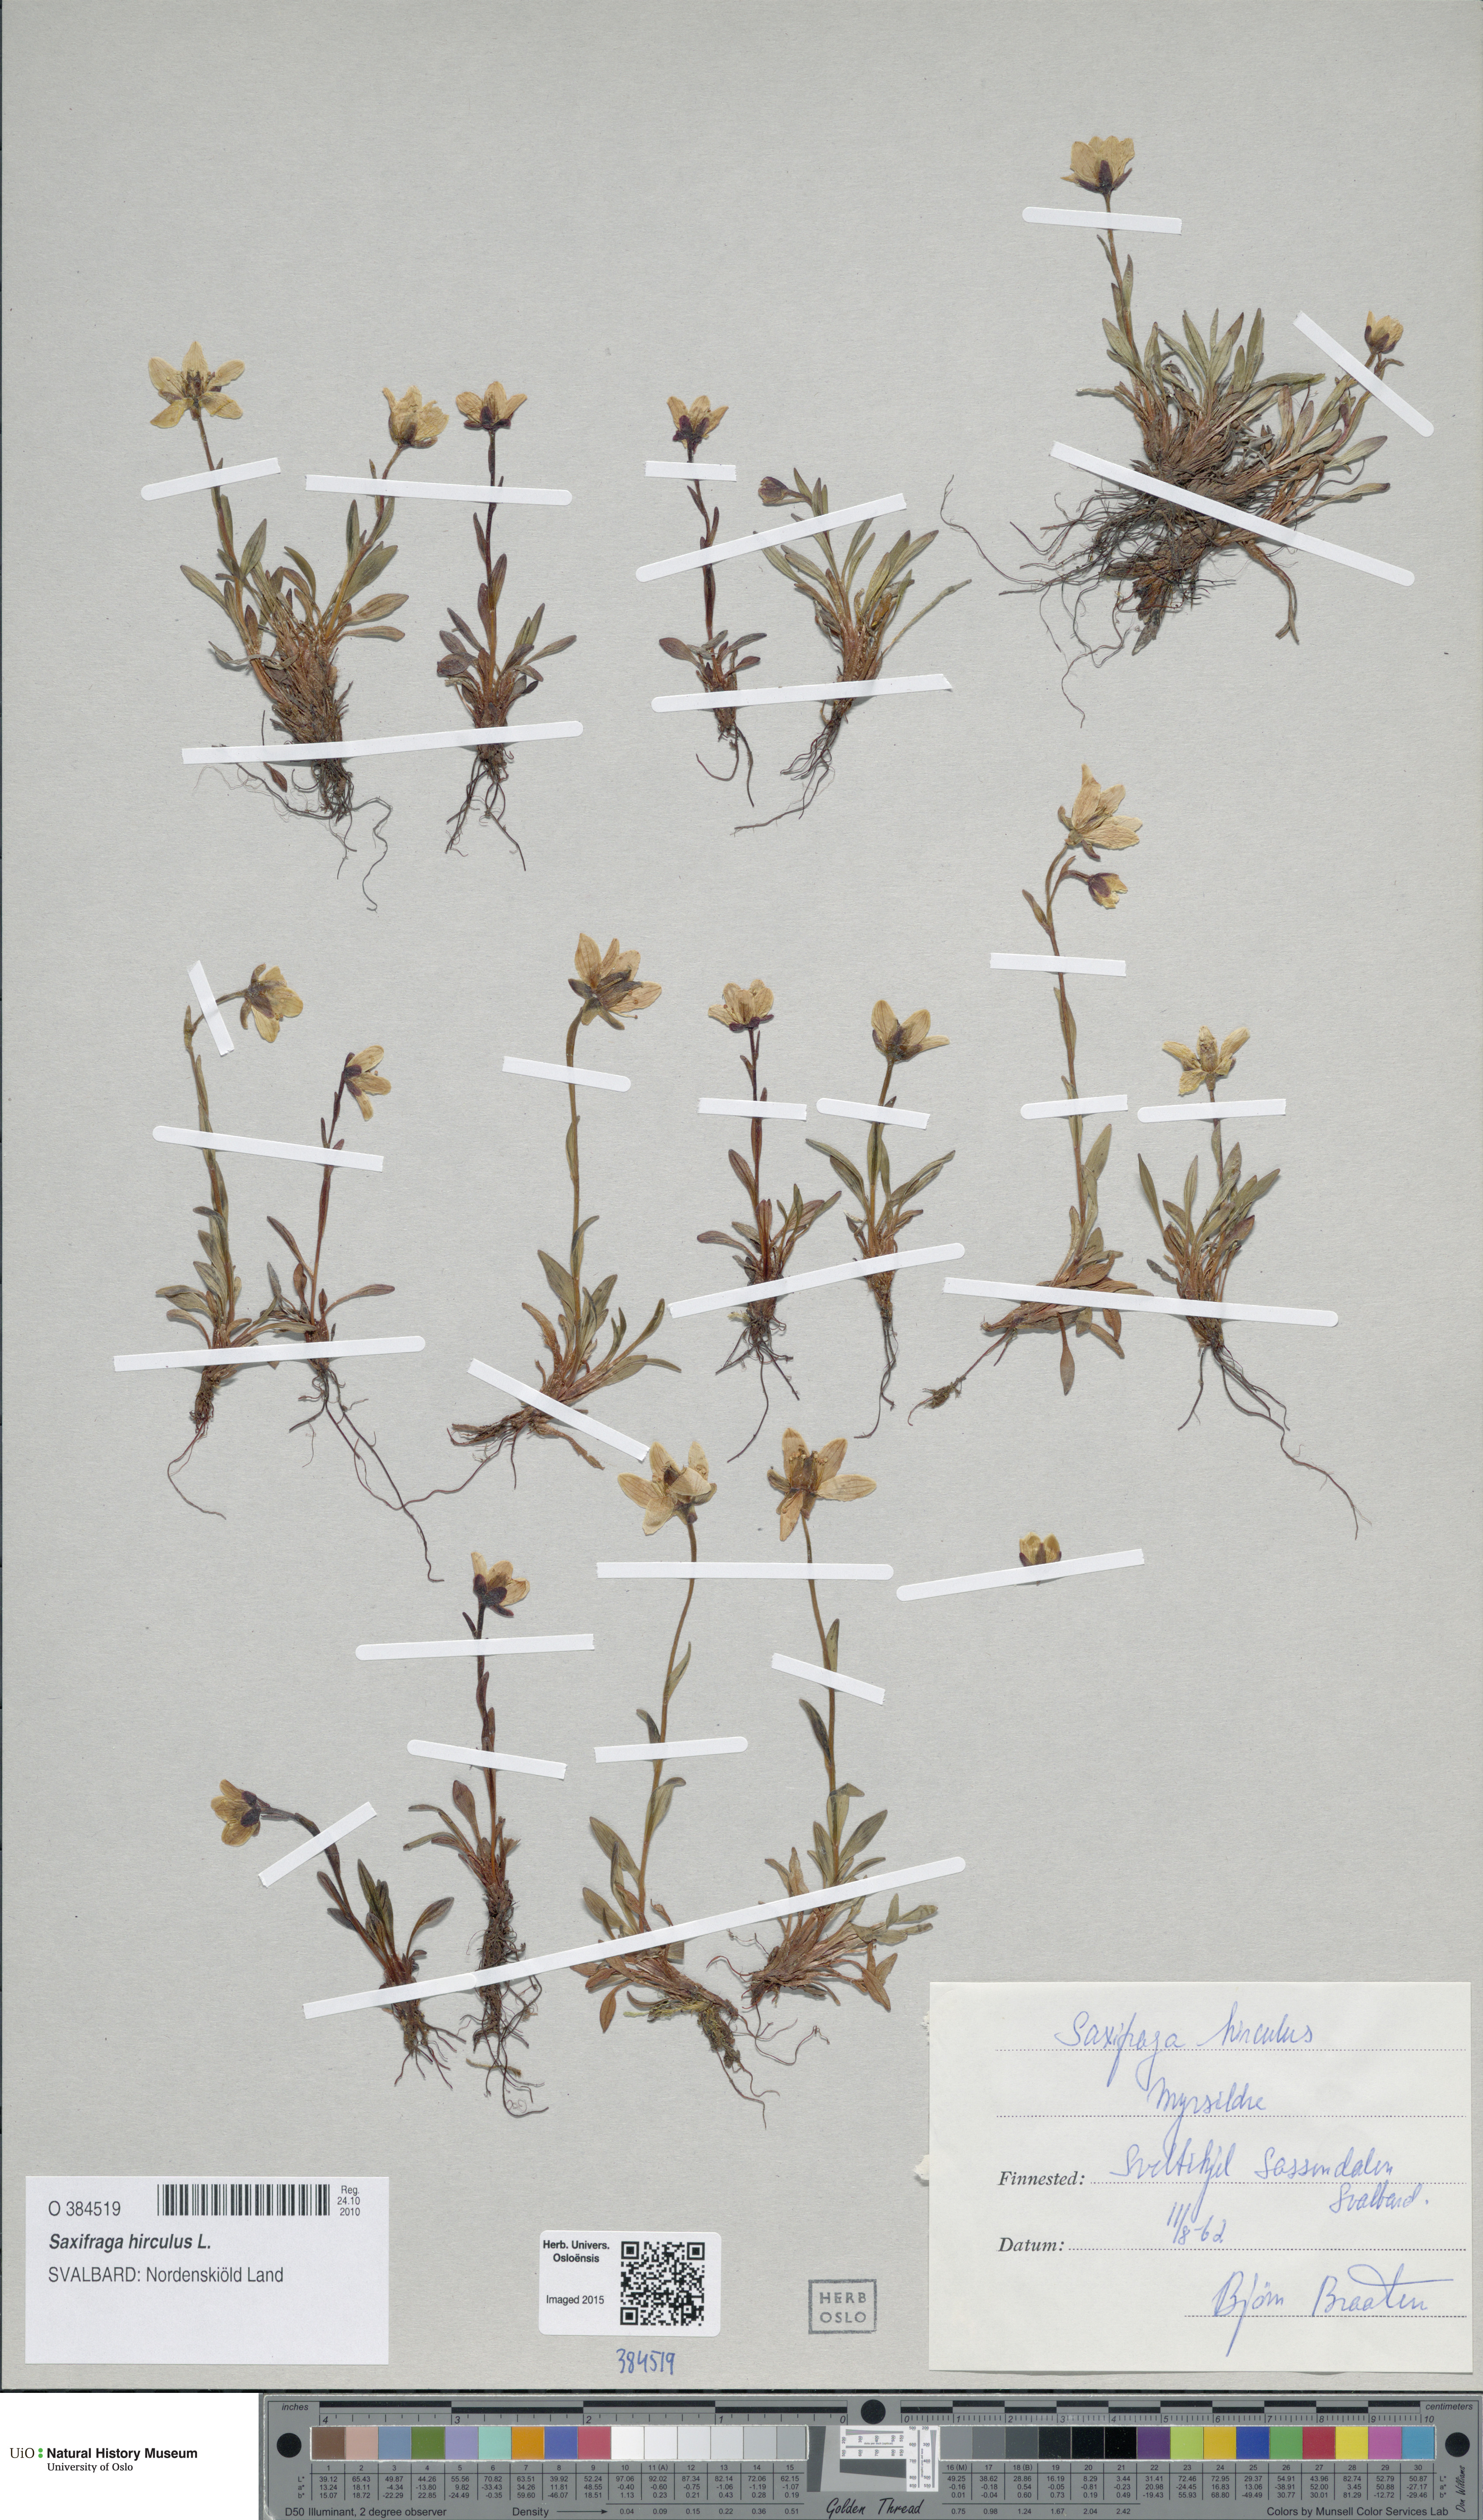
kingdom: Plantae
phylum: Tracheophyta
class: Magnoliopsida
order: Saxifragales
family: Saxifragaceae
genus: Saxifraga
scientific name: Saxifraga hirculus
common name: Yellow marsh saxifrage
